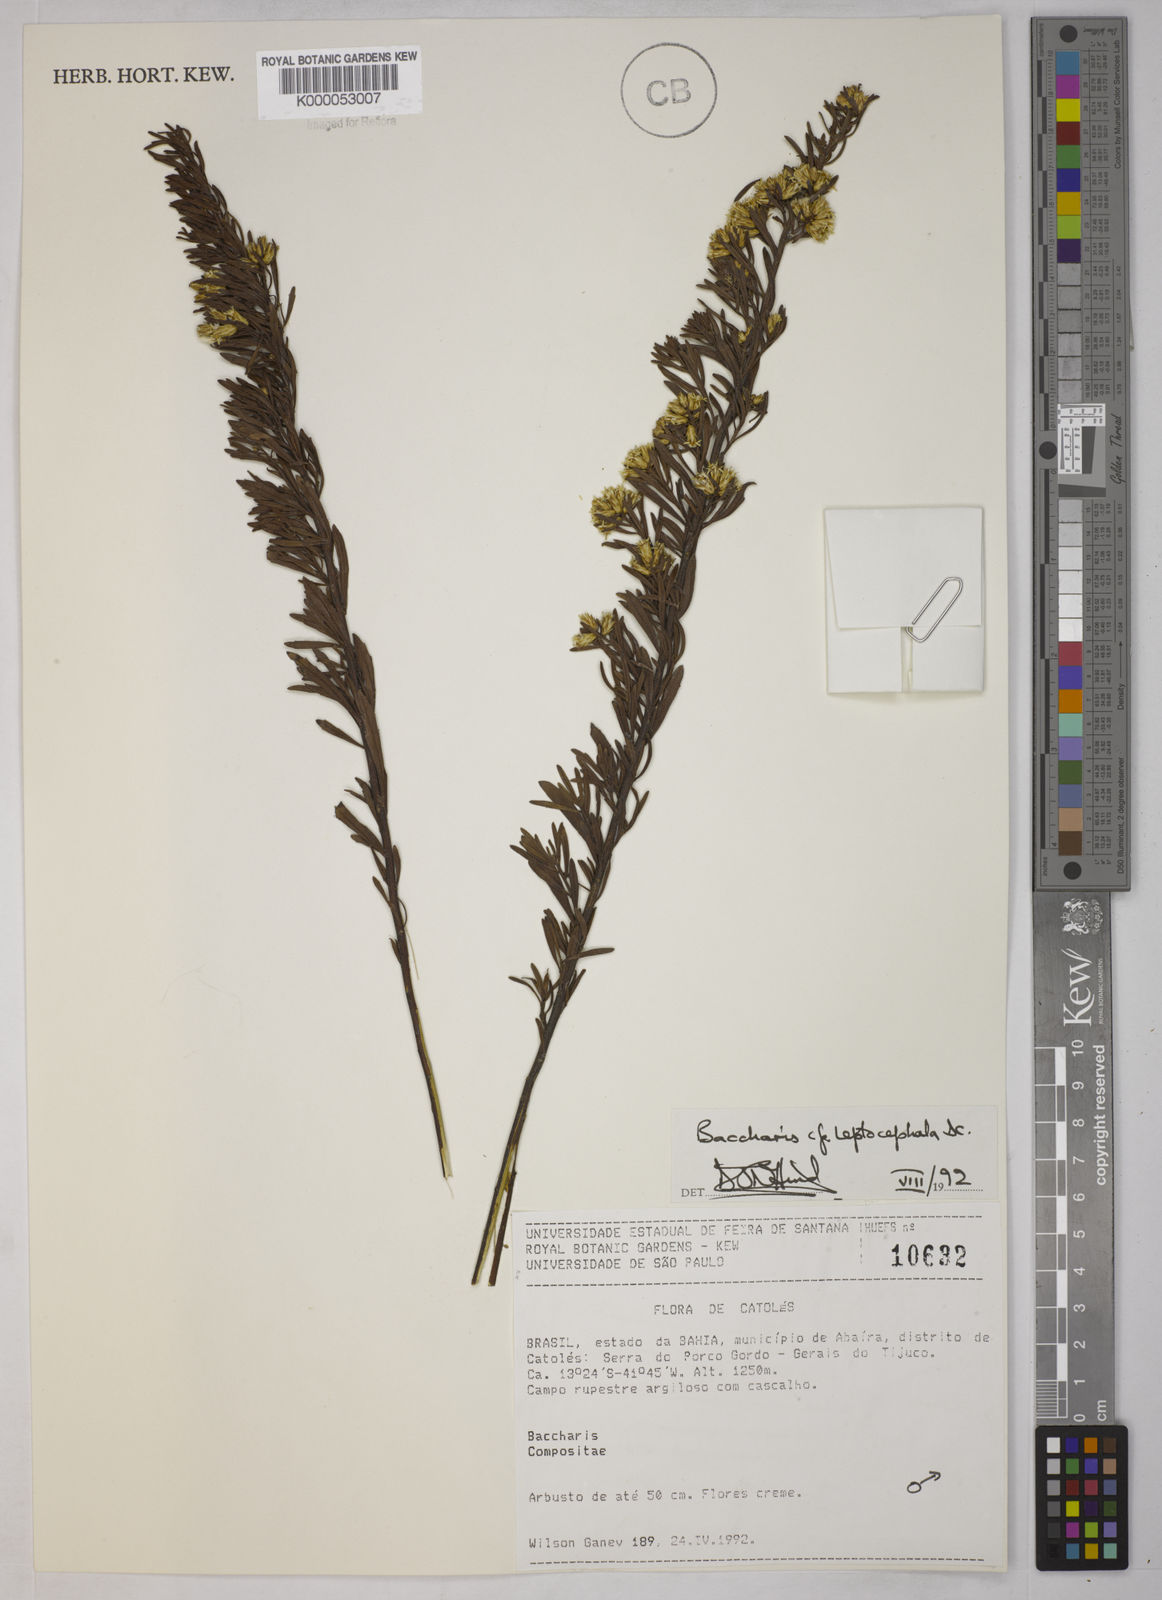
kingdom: Plantae
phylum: Tracheophyta
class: Magnoliopsida
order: Asterales
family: Asteraceae
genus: Baccharis
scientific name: Baccharis leptocephala
